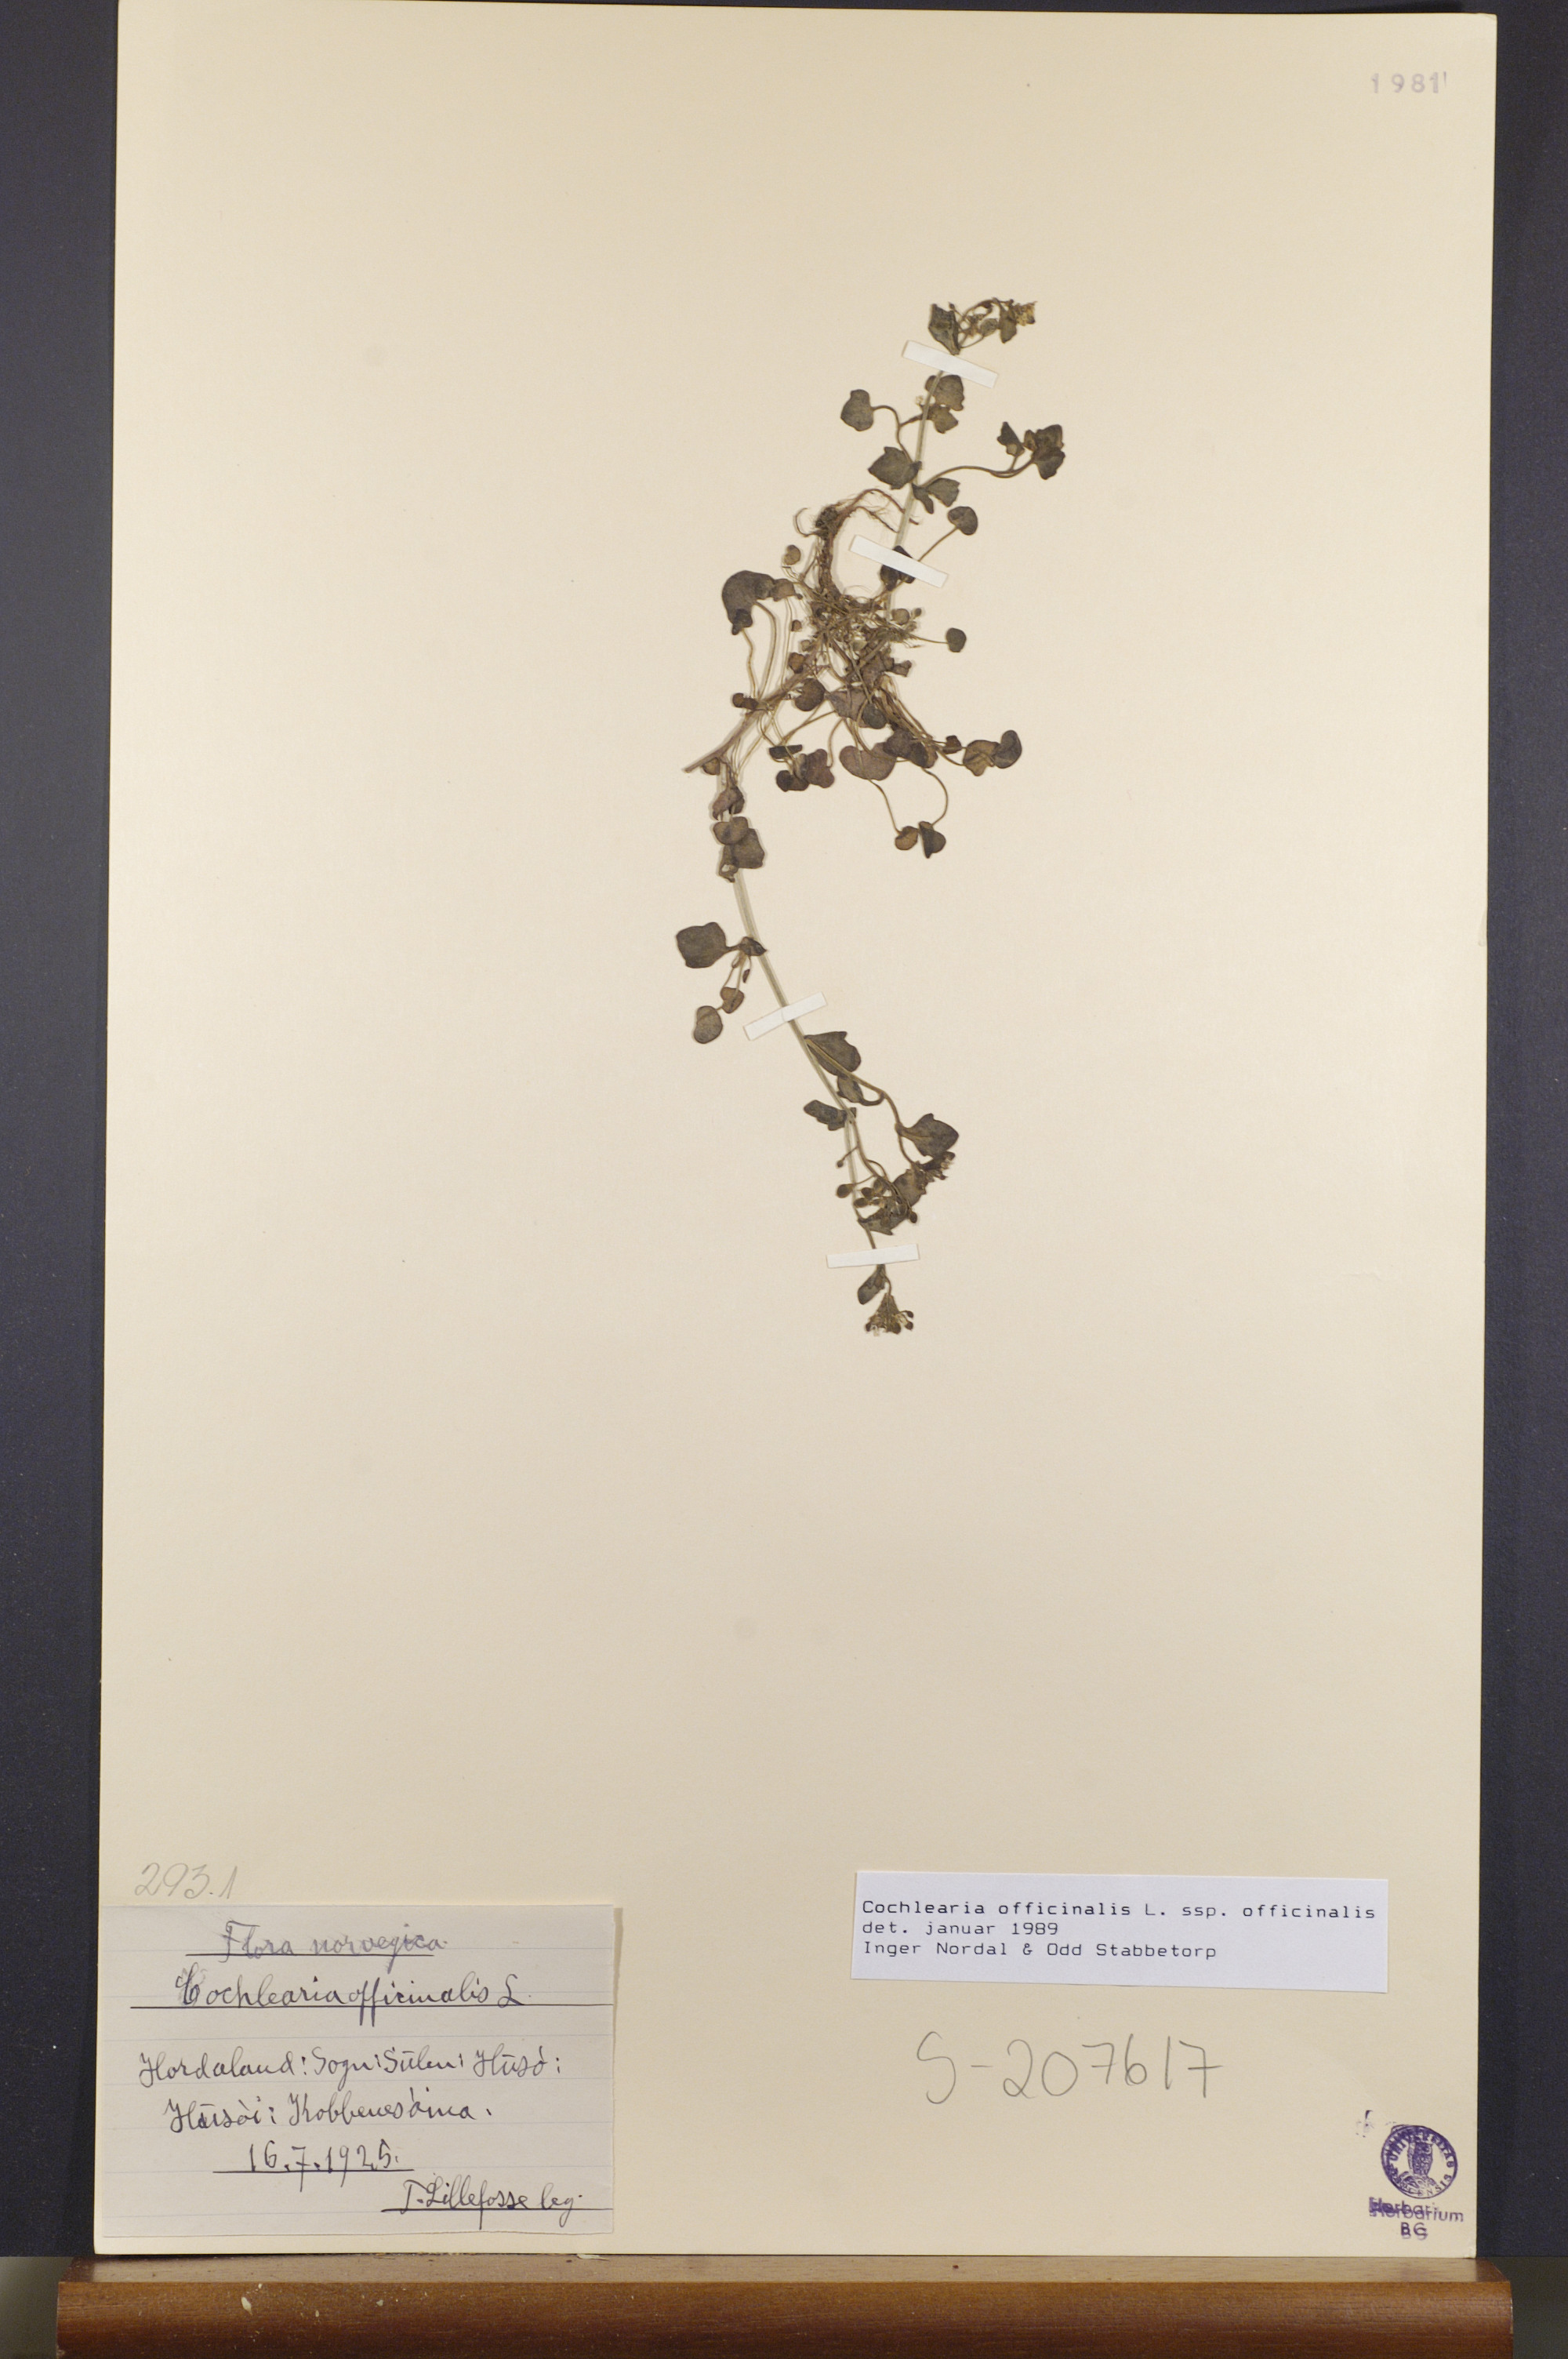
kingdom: Plantae
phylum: Tracheophyta
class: Magnoliopsida
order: Brassicales
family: Brassicaceae
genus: Cochlearia
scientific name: Cochlearia officinalis
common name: Scurvy-grass
